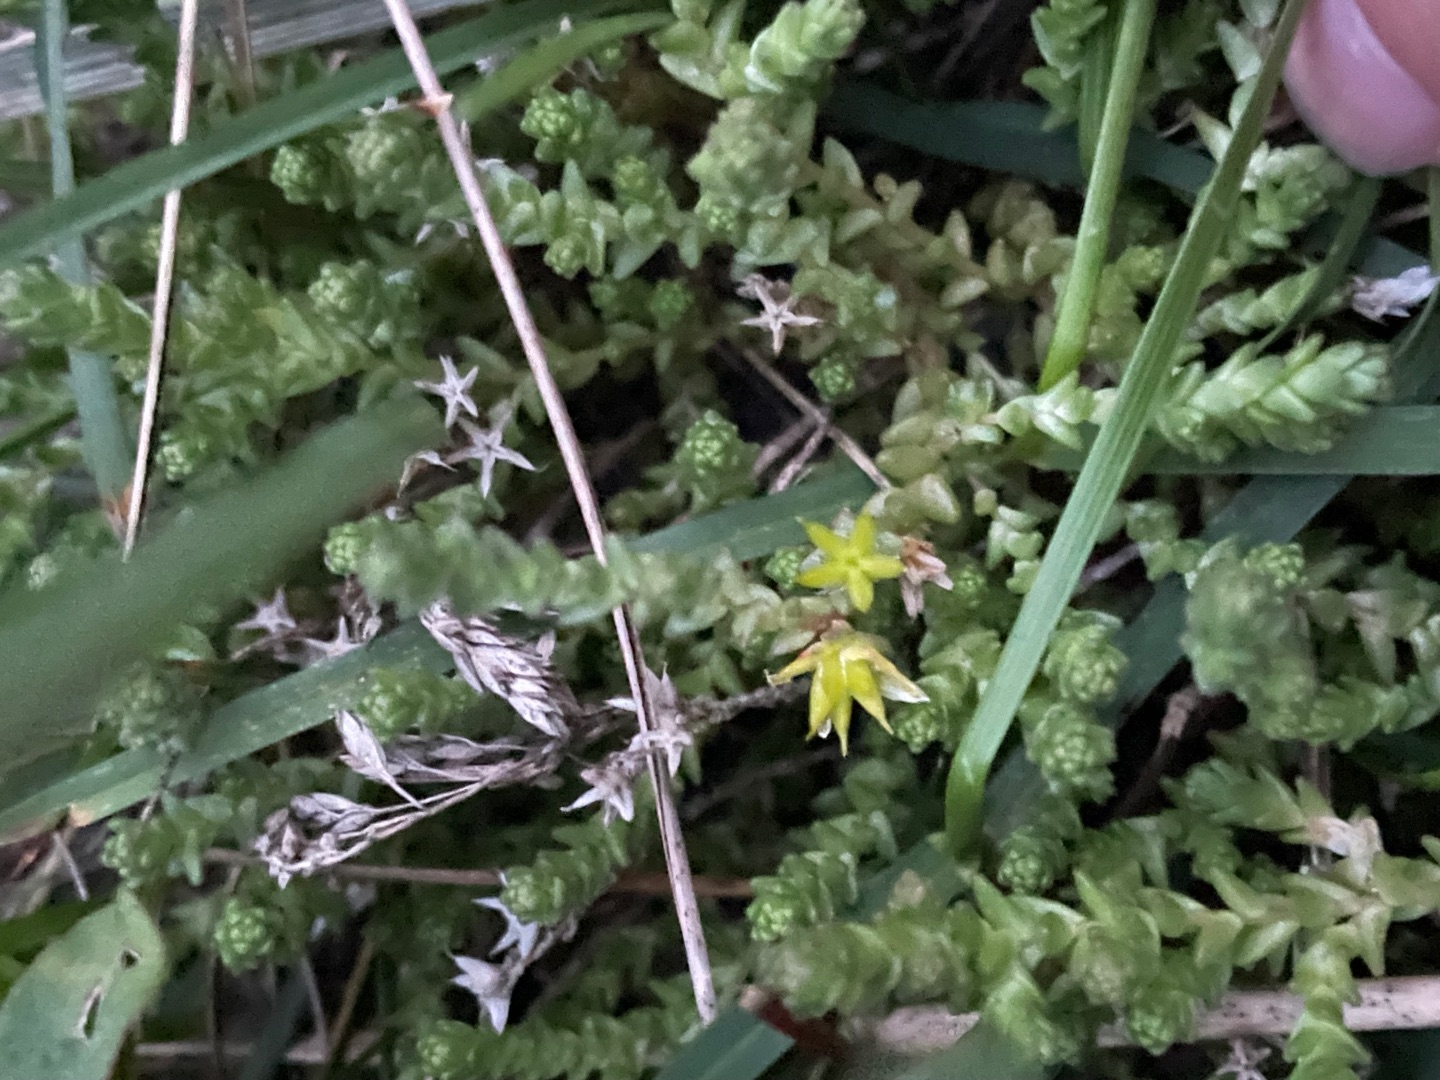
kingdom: Plantae
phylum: Tracheophyta
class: Magnoliopsida
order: Saxifragales
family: Crassulaceae
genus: Sedum
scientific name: Sedum acre
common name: Bidende stenurt
